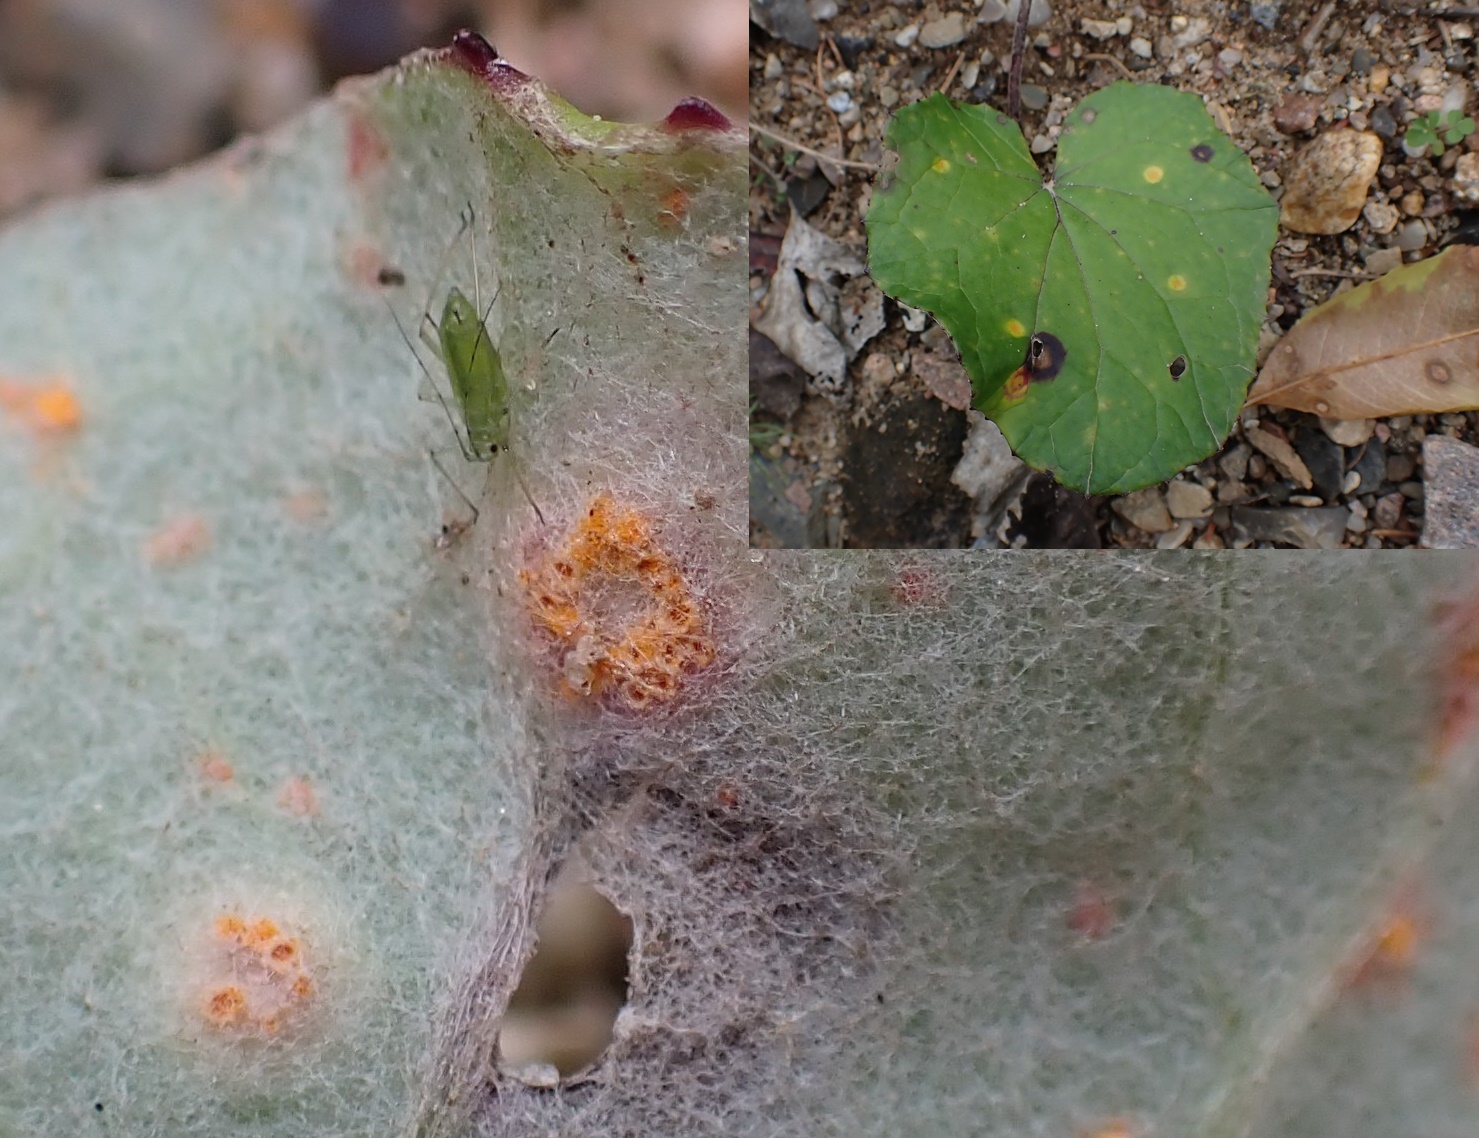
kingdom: Fungi
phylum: Basidiomycota
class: Pucciniomycetes
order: Pucciniales
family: Pucciniaceae
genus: Puccinia
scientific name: Puccinia poarum
